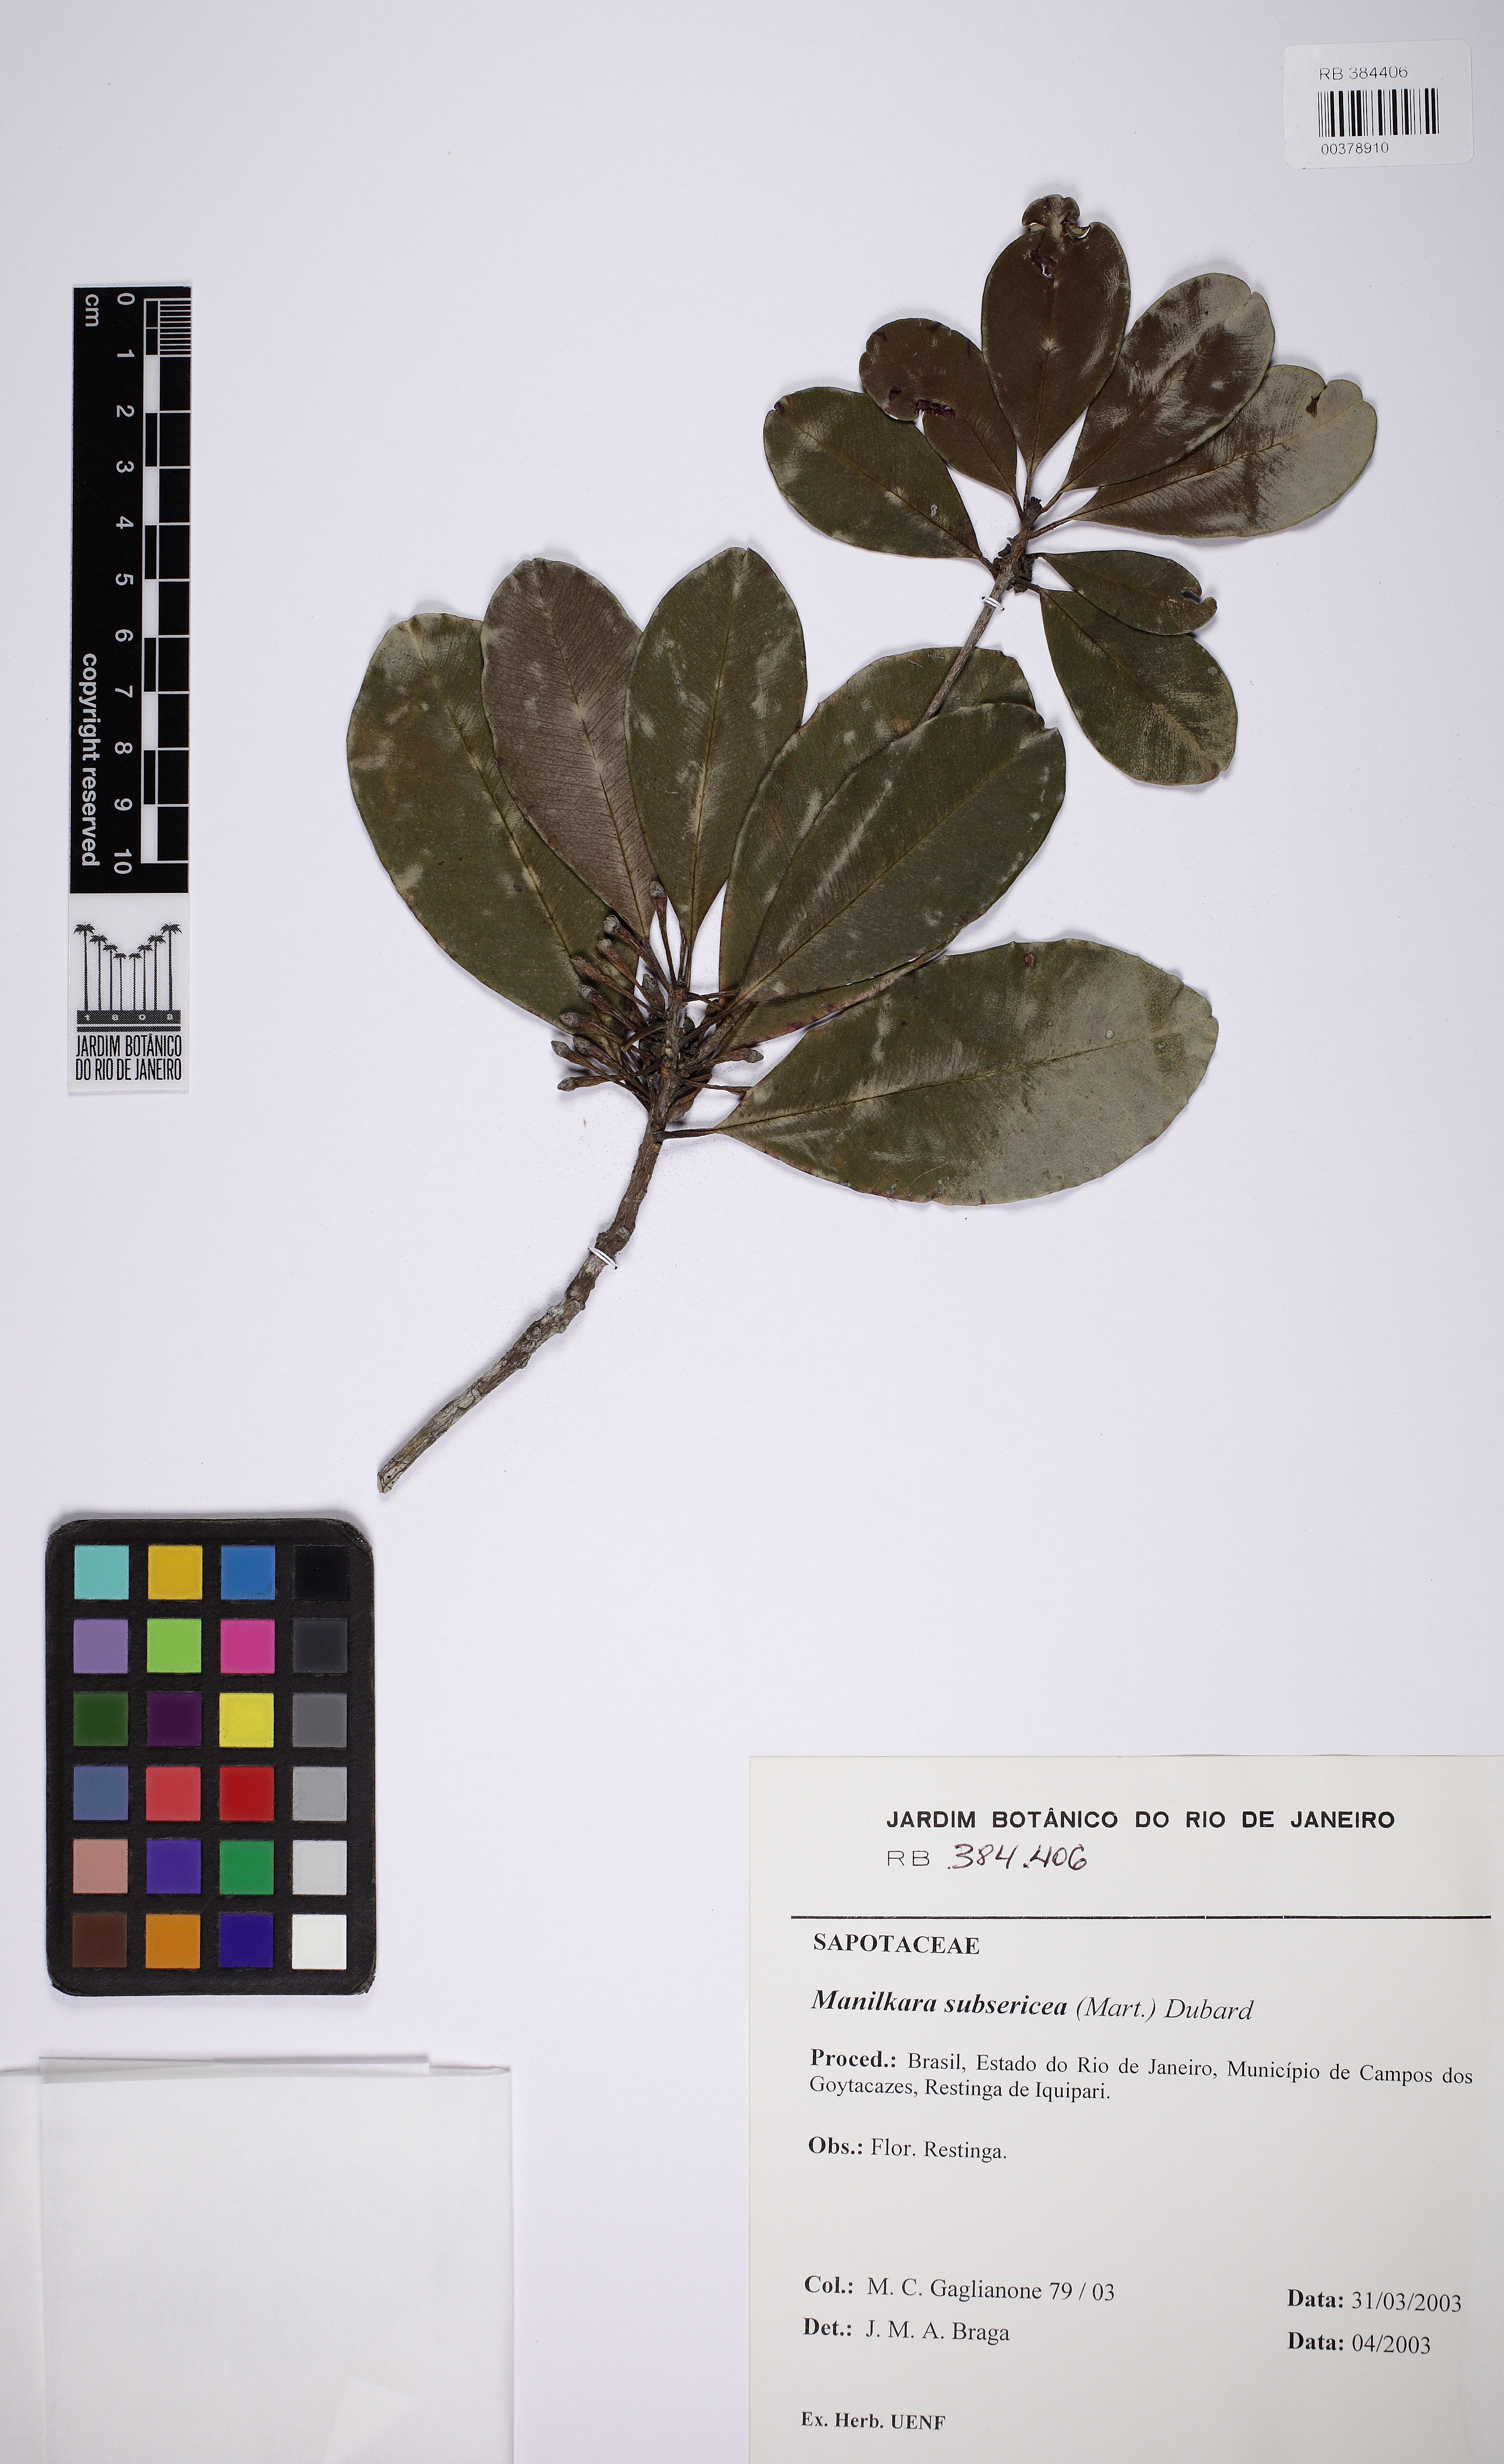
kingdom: Plantae
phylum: Tracheophyta
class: Magnoliopsida
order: Ericales
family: Sapotaceae
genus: Manilkara
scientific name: Manilkara subsericea
